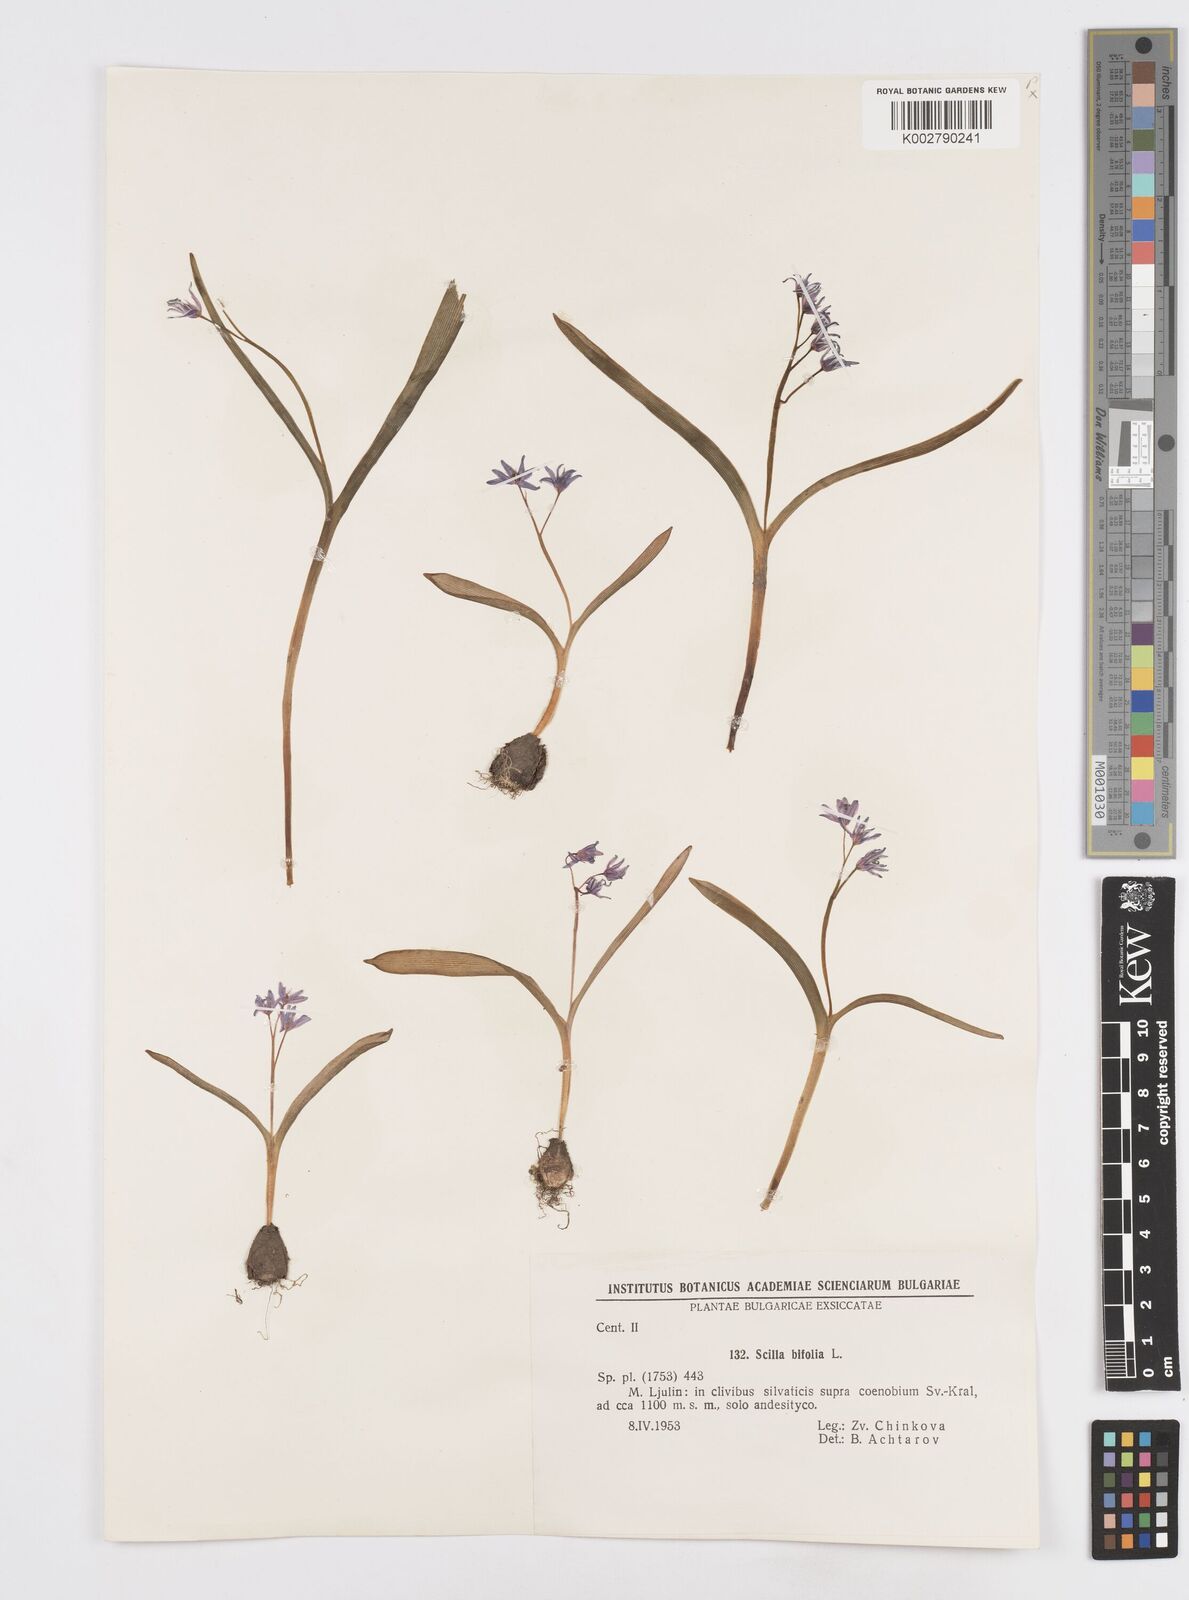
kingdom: Plantae
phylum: Tracheophyta
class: Liliopsida
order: Asparagales
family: Asparagaceae
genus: Scilla
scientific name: Scilla bifolia
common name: Alpine squill
